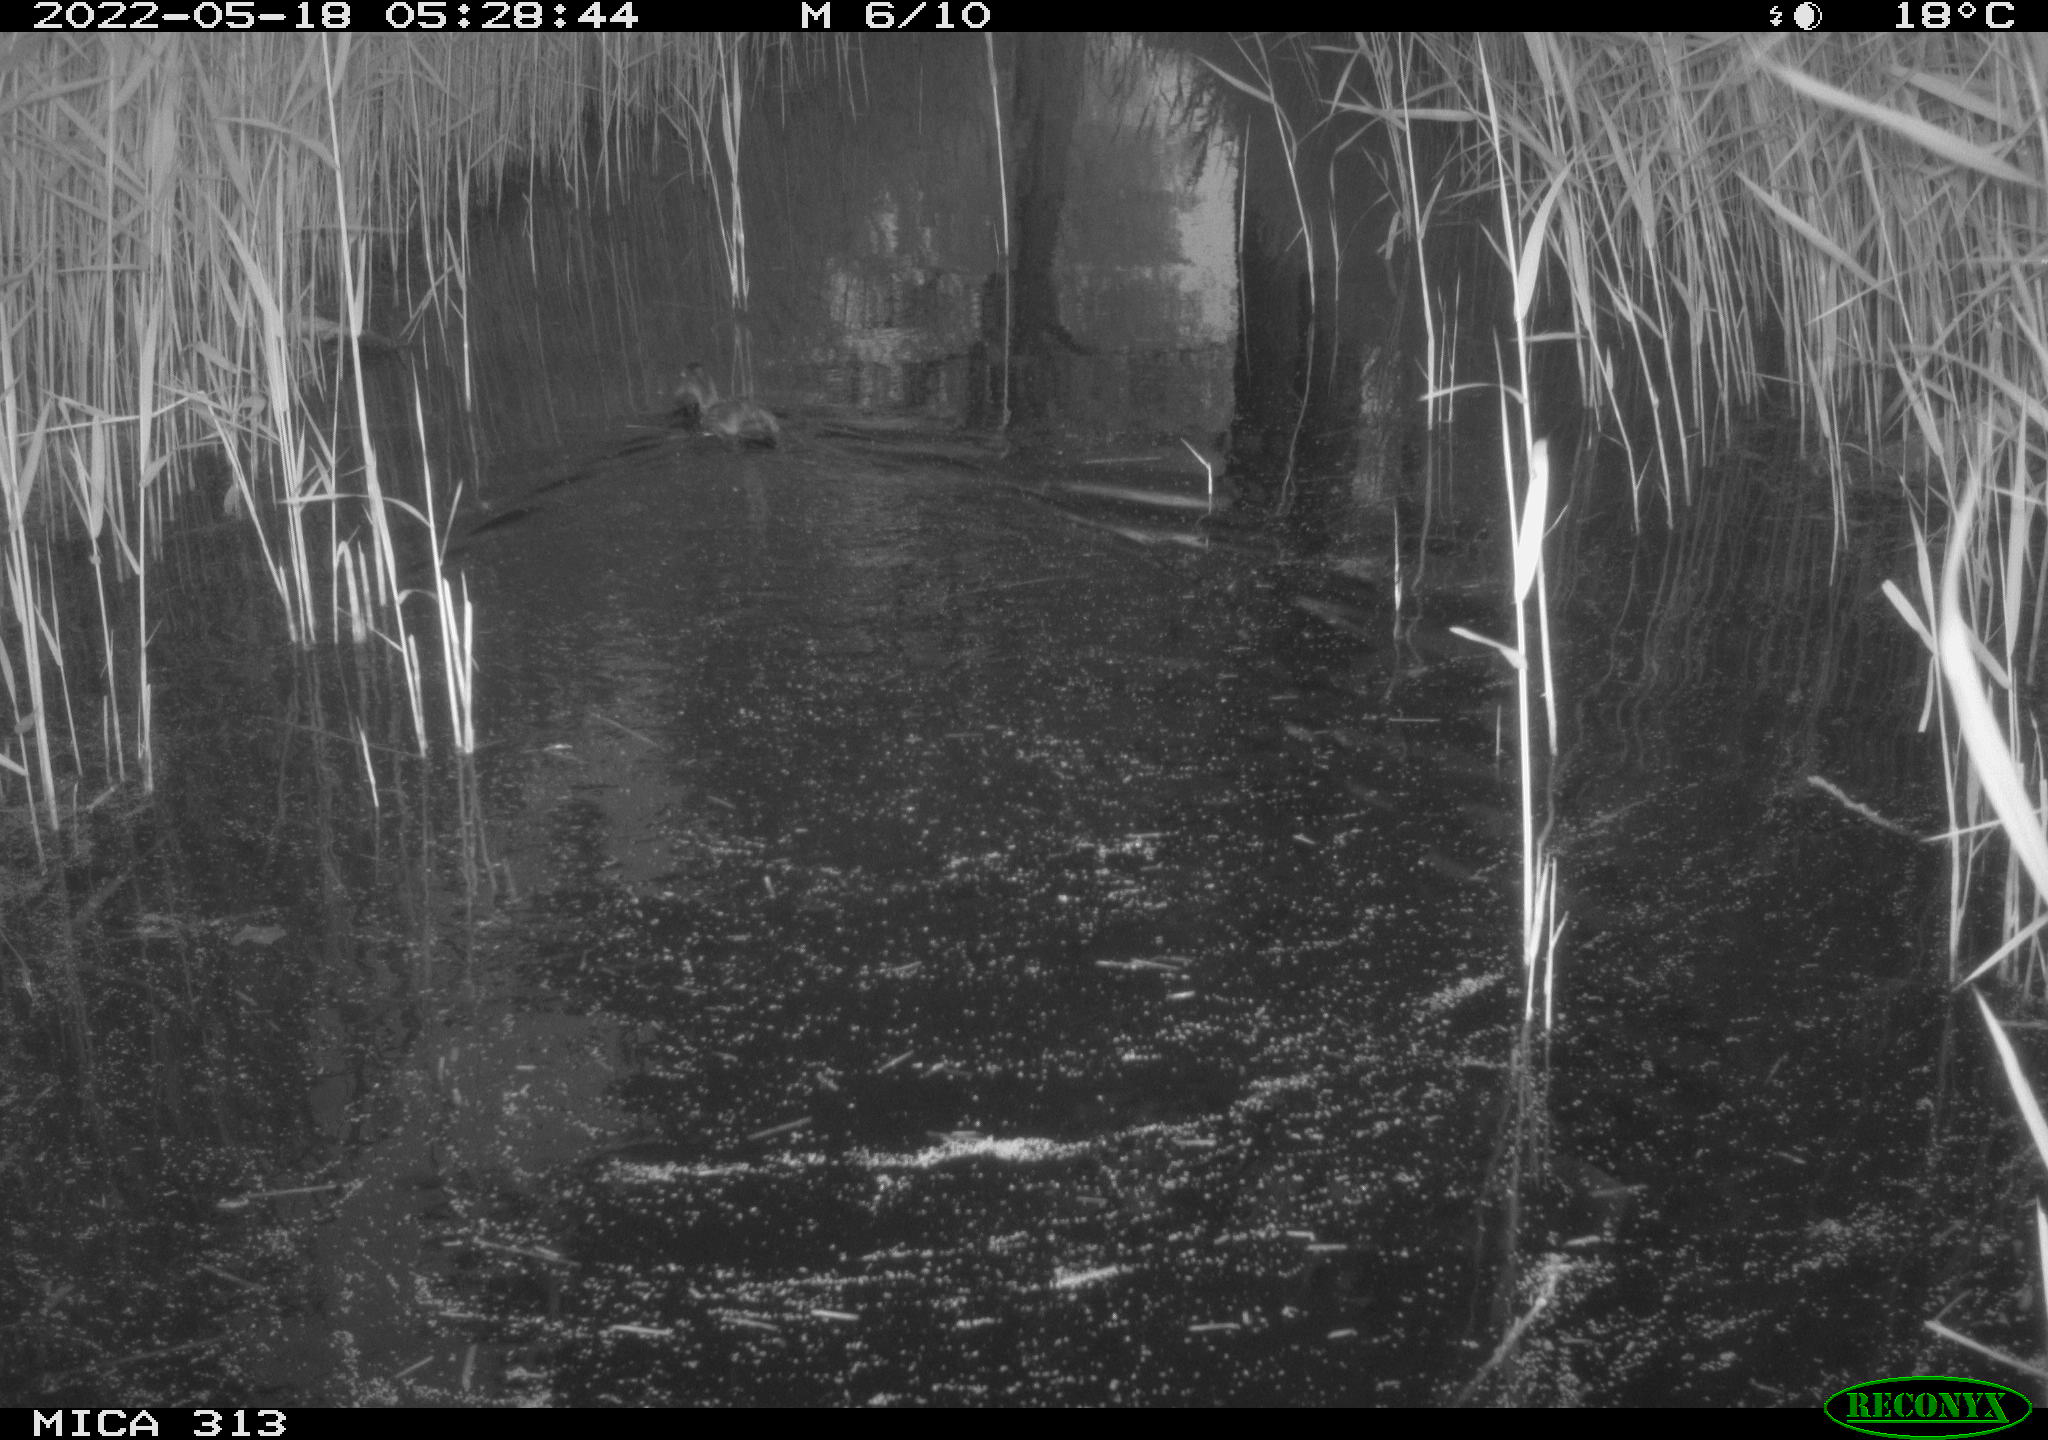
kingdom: Animalia
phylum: Chordata
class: Aves
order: Anseriformes
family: Anatidae
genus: Anas
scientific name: Anas platyrhynchos
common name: Mallard
